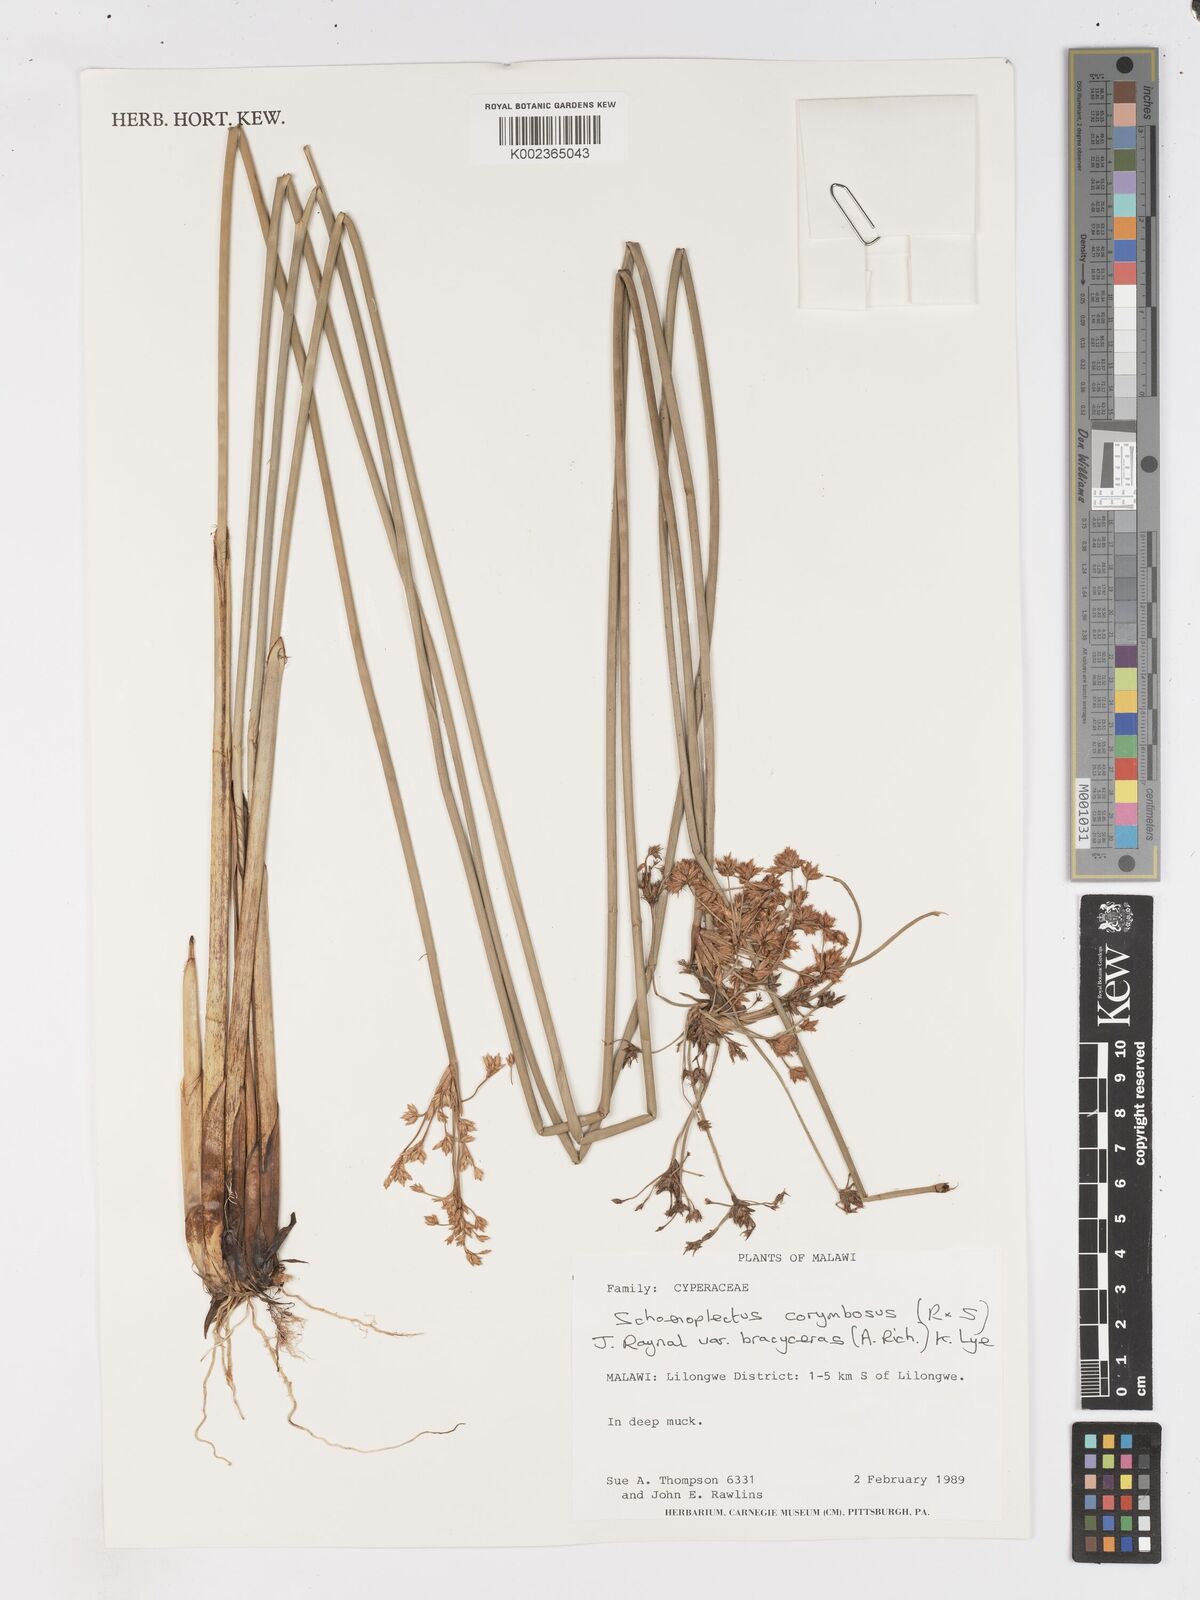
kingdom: Plantae
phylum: Tracheophyta
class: Liliopsida
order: Poales
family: Cyperaceae
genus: Schoenoplectiella
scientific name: Schoenoplectiella brachyceras
